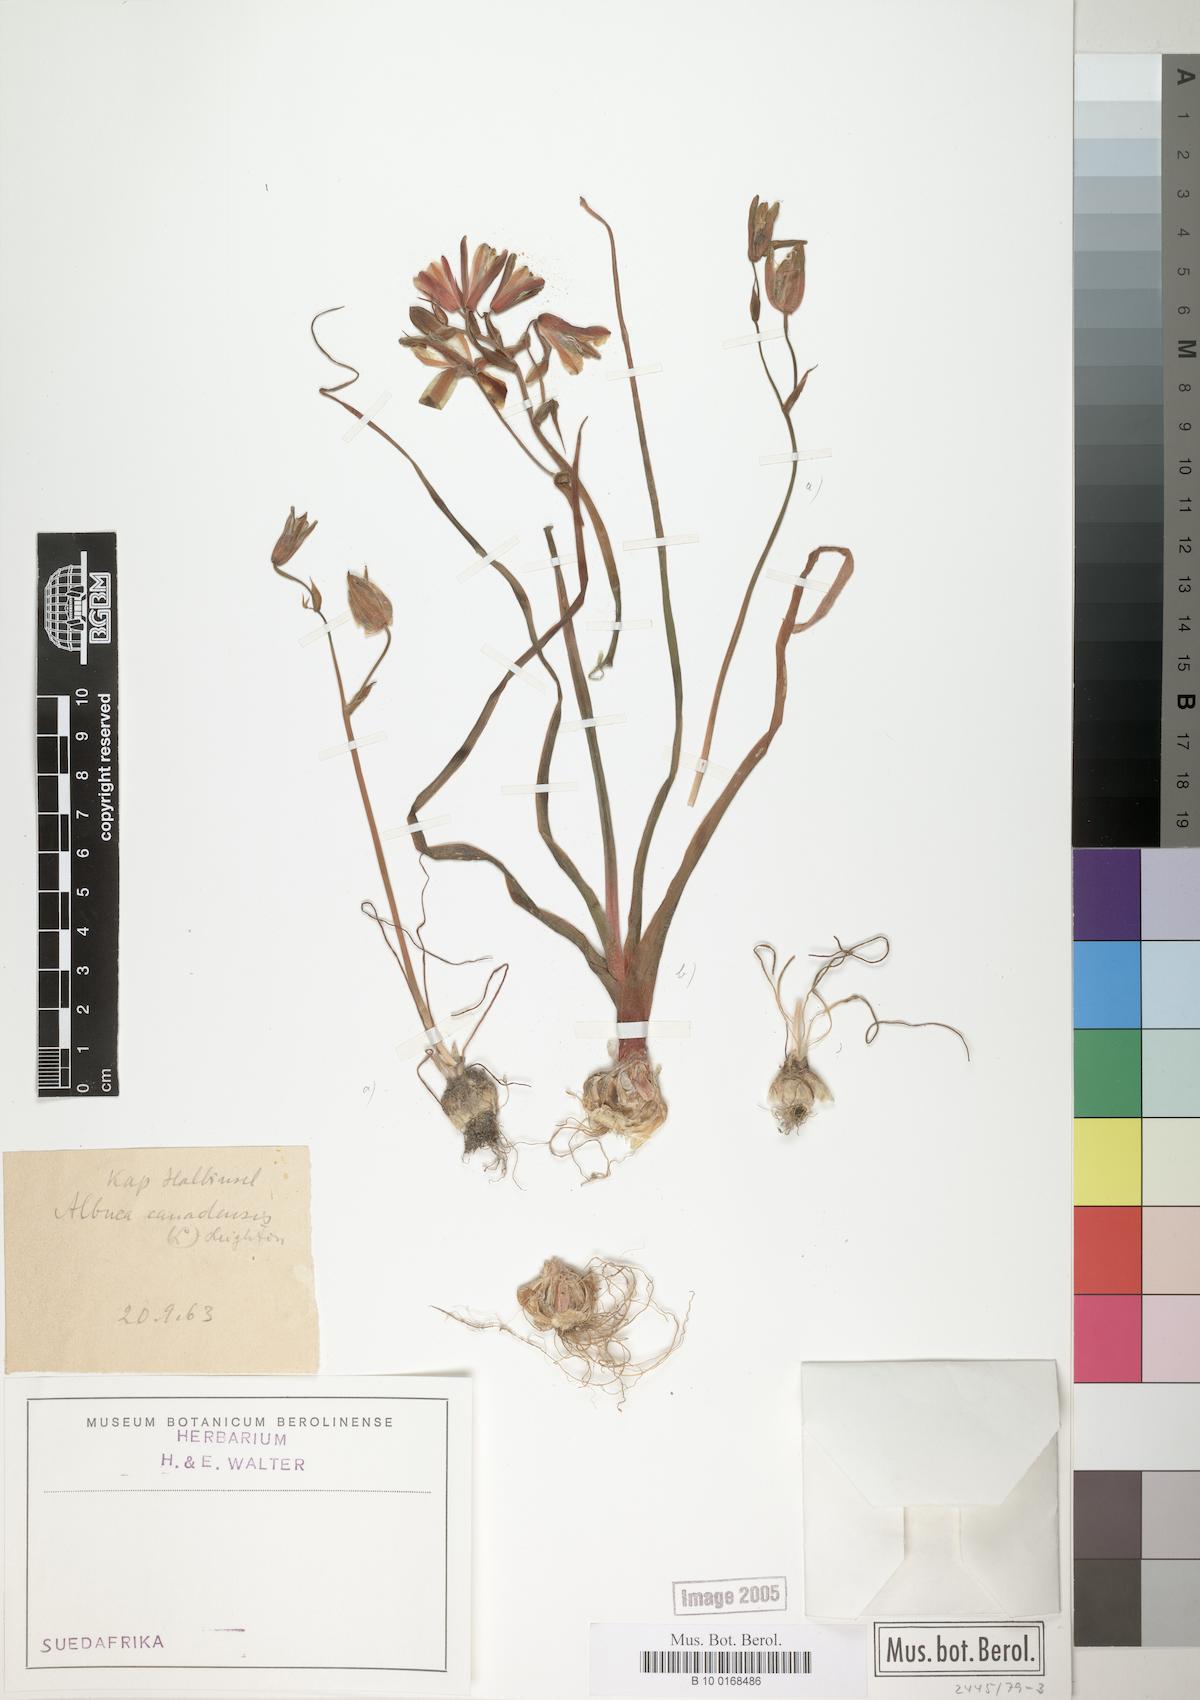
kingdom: Plantae
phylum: Tracheophyta
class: Liliopsida
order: Asparagales
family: Asparagaceae
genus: Albuca
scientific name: Albuca canadensis
